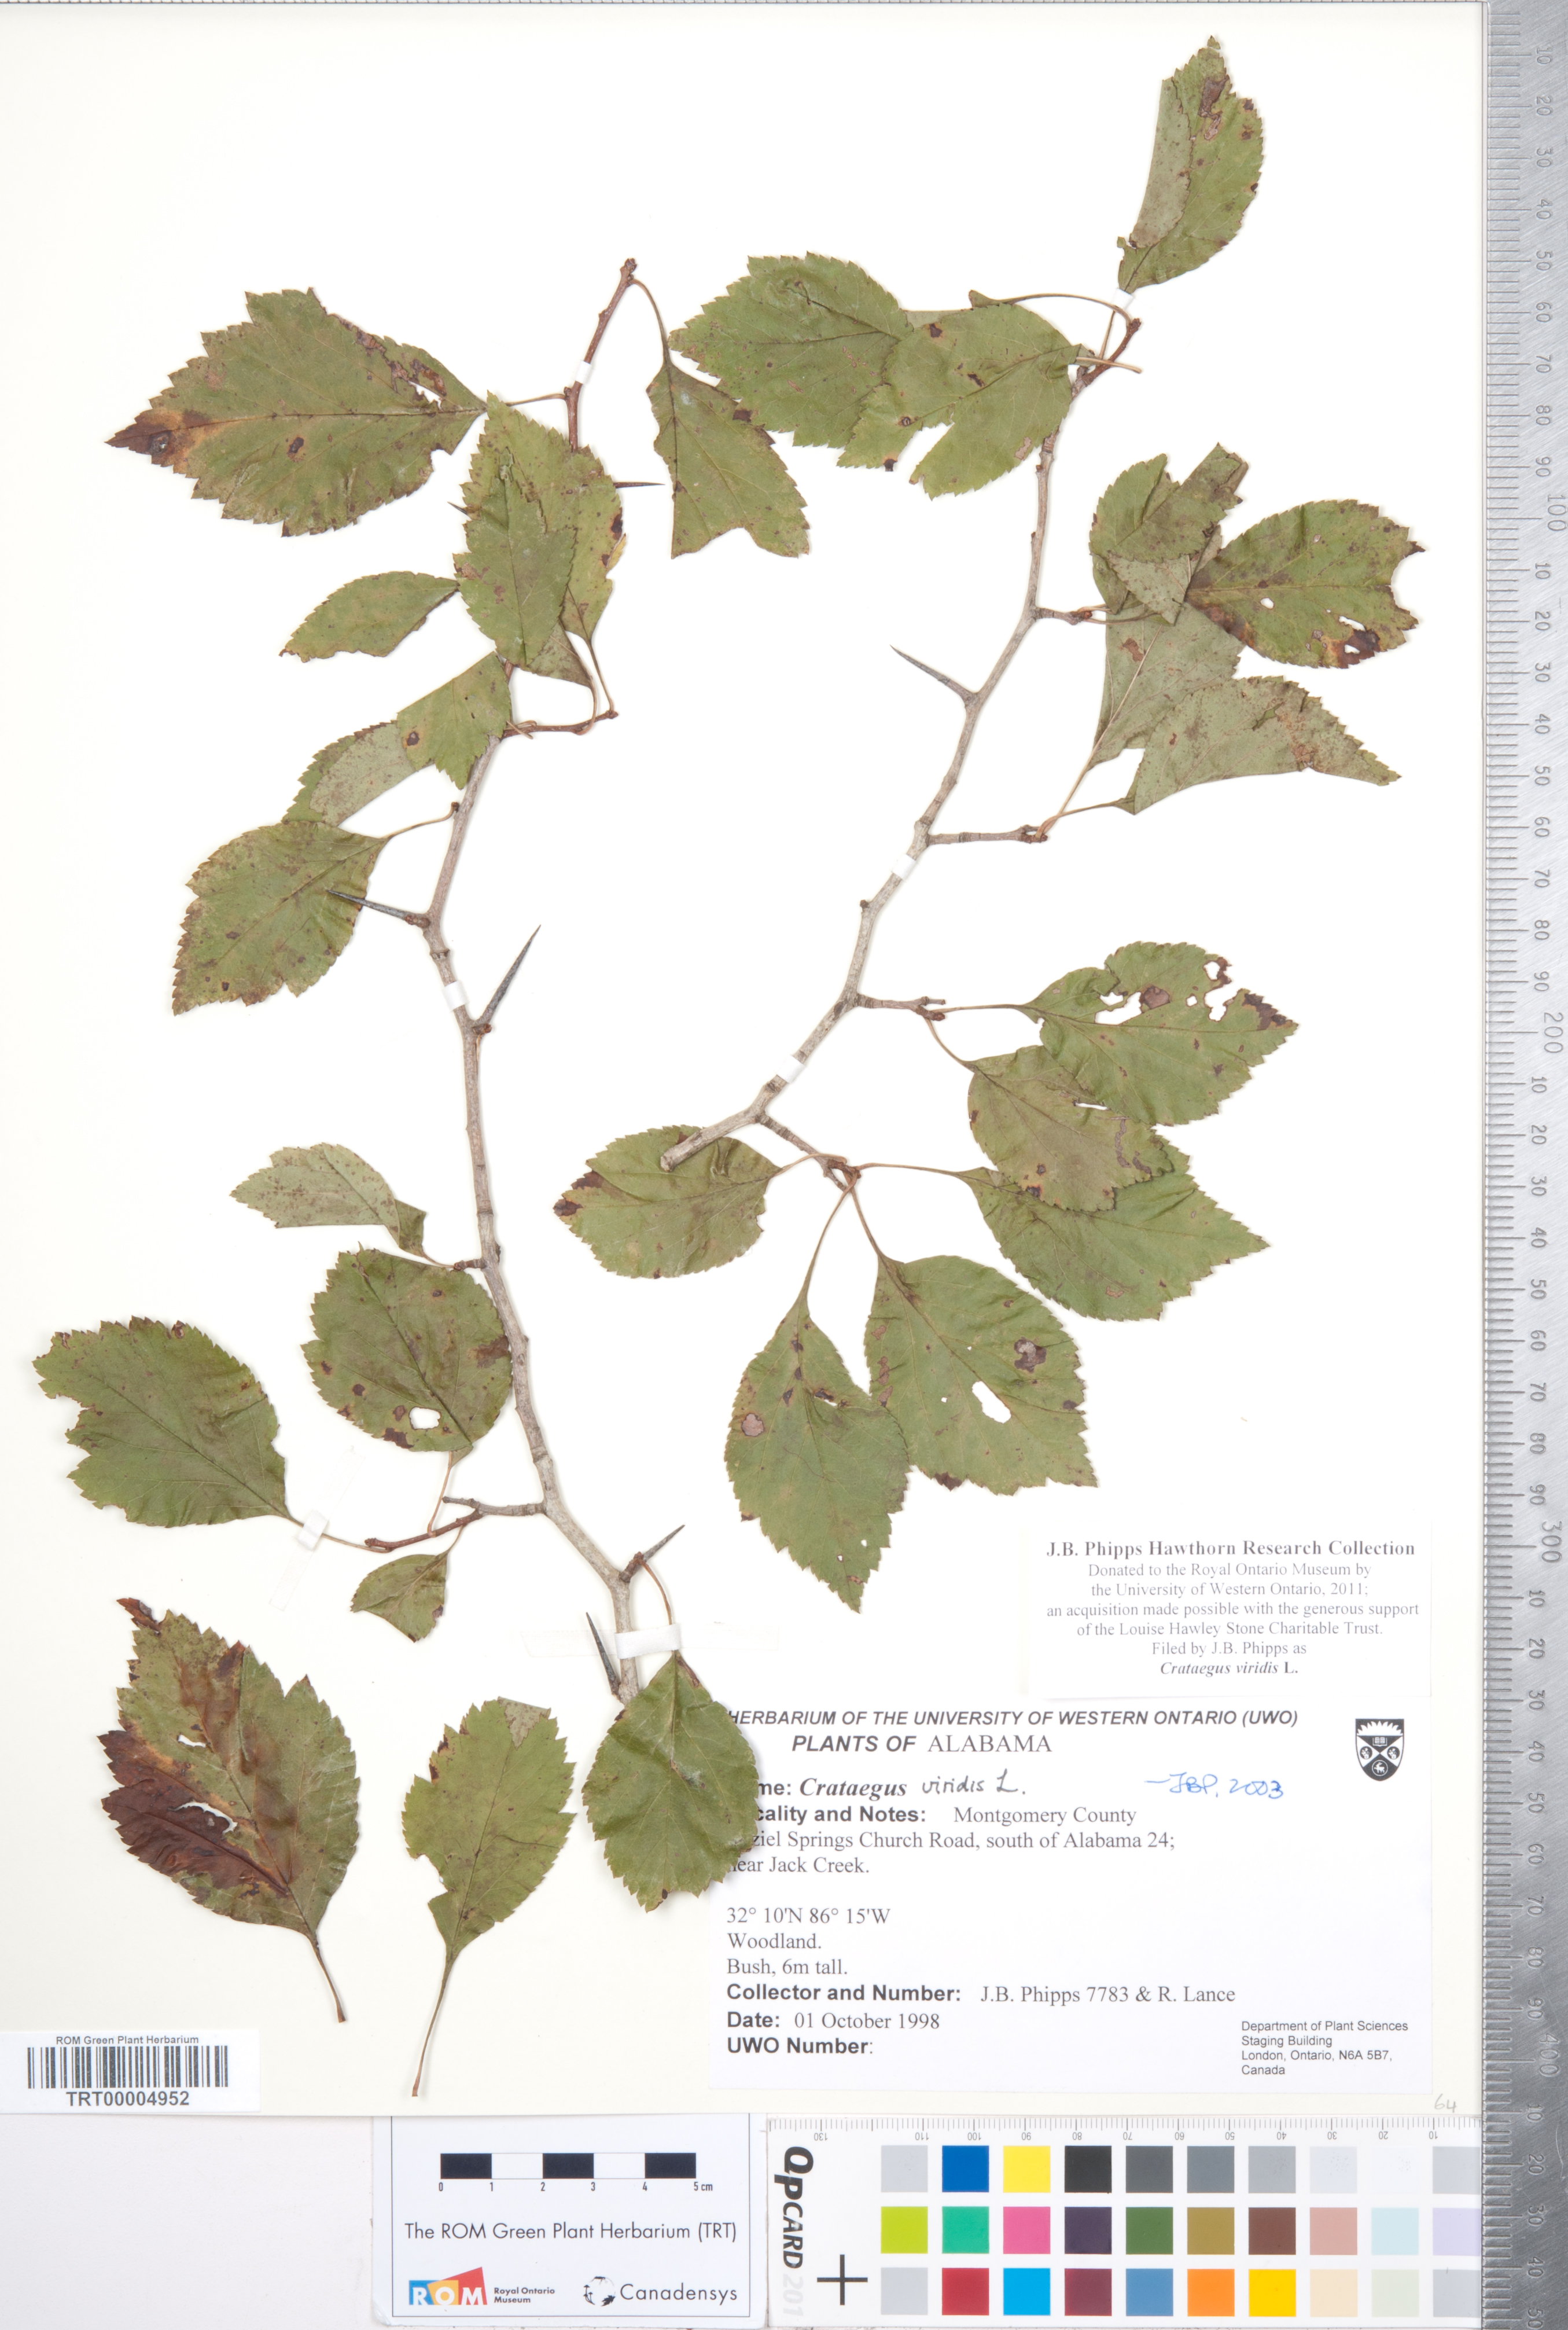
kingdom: Plantae
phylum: Tracheophyta
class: Magnoliopsida
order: Rosales
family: Rosaceae
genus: Crataegus
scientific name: Crataegus viridis
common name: Southernthorn
